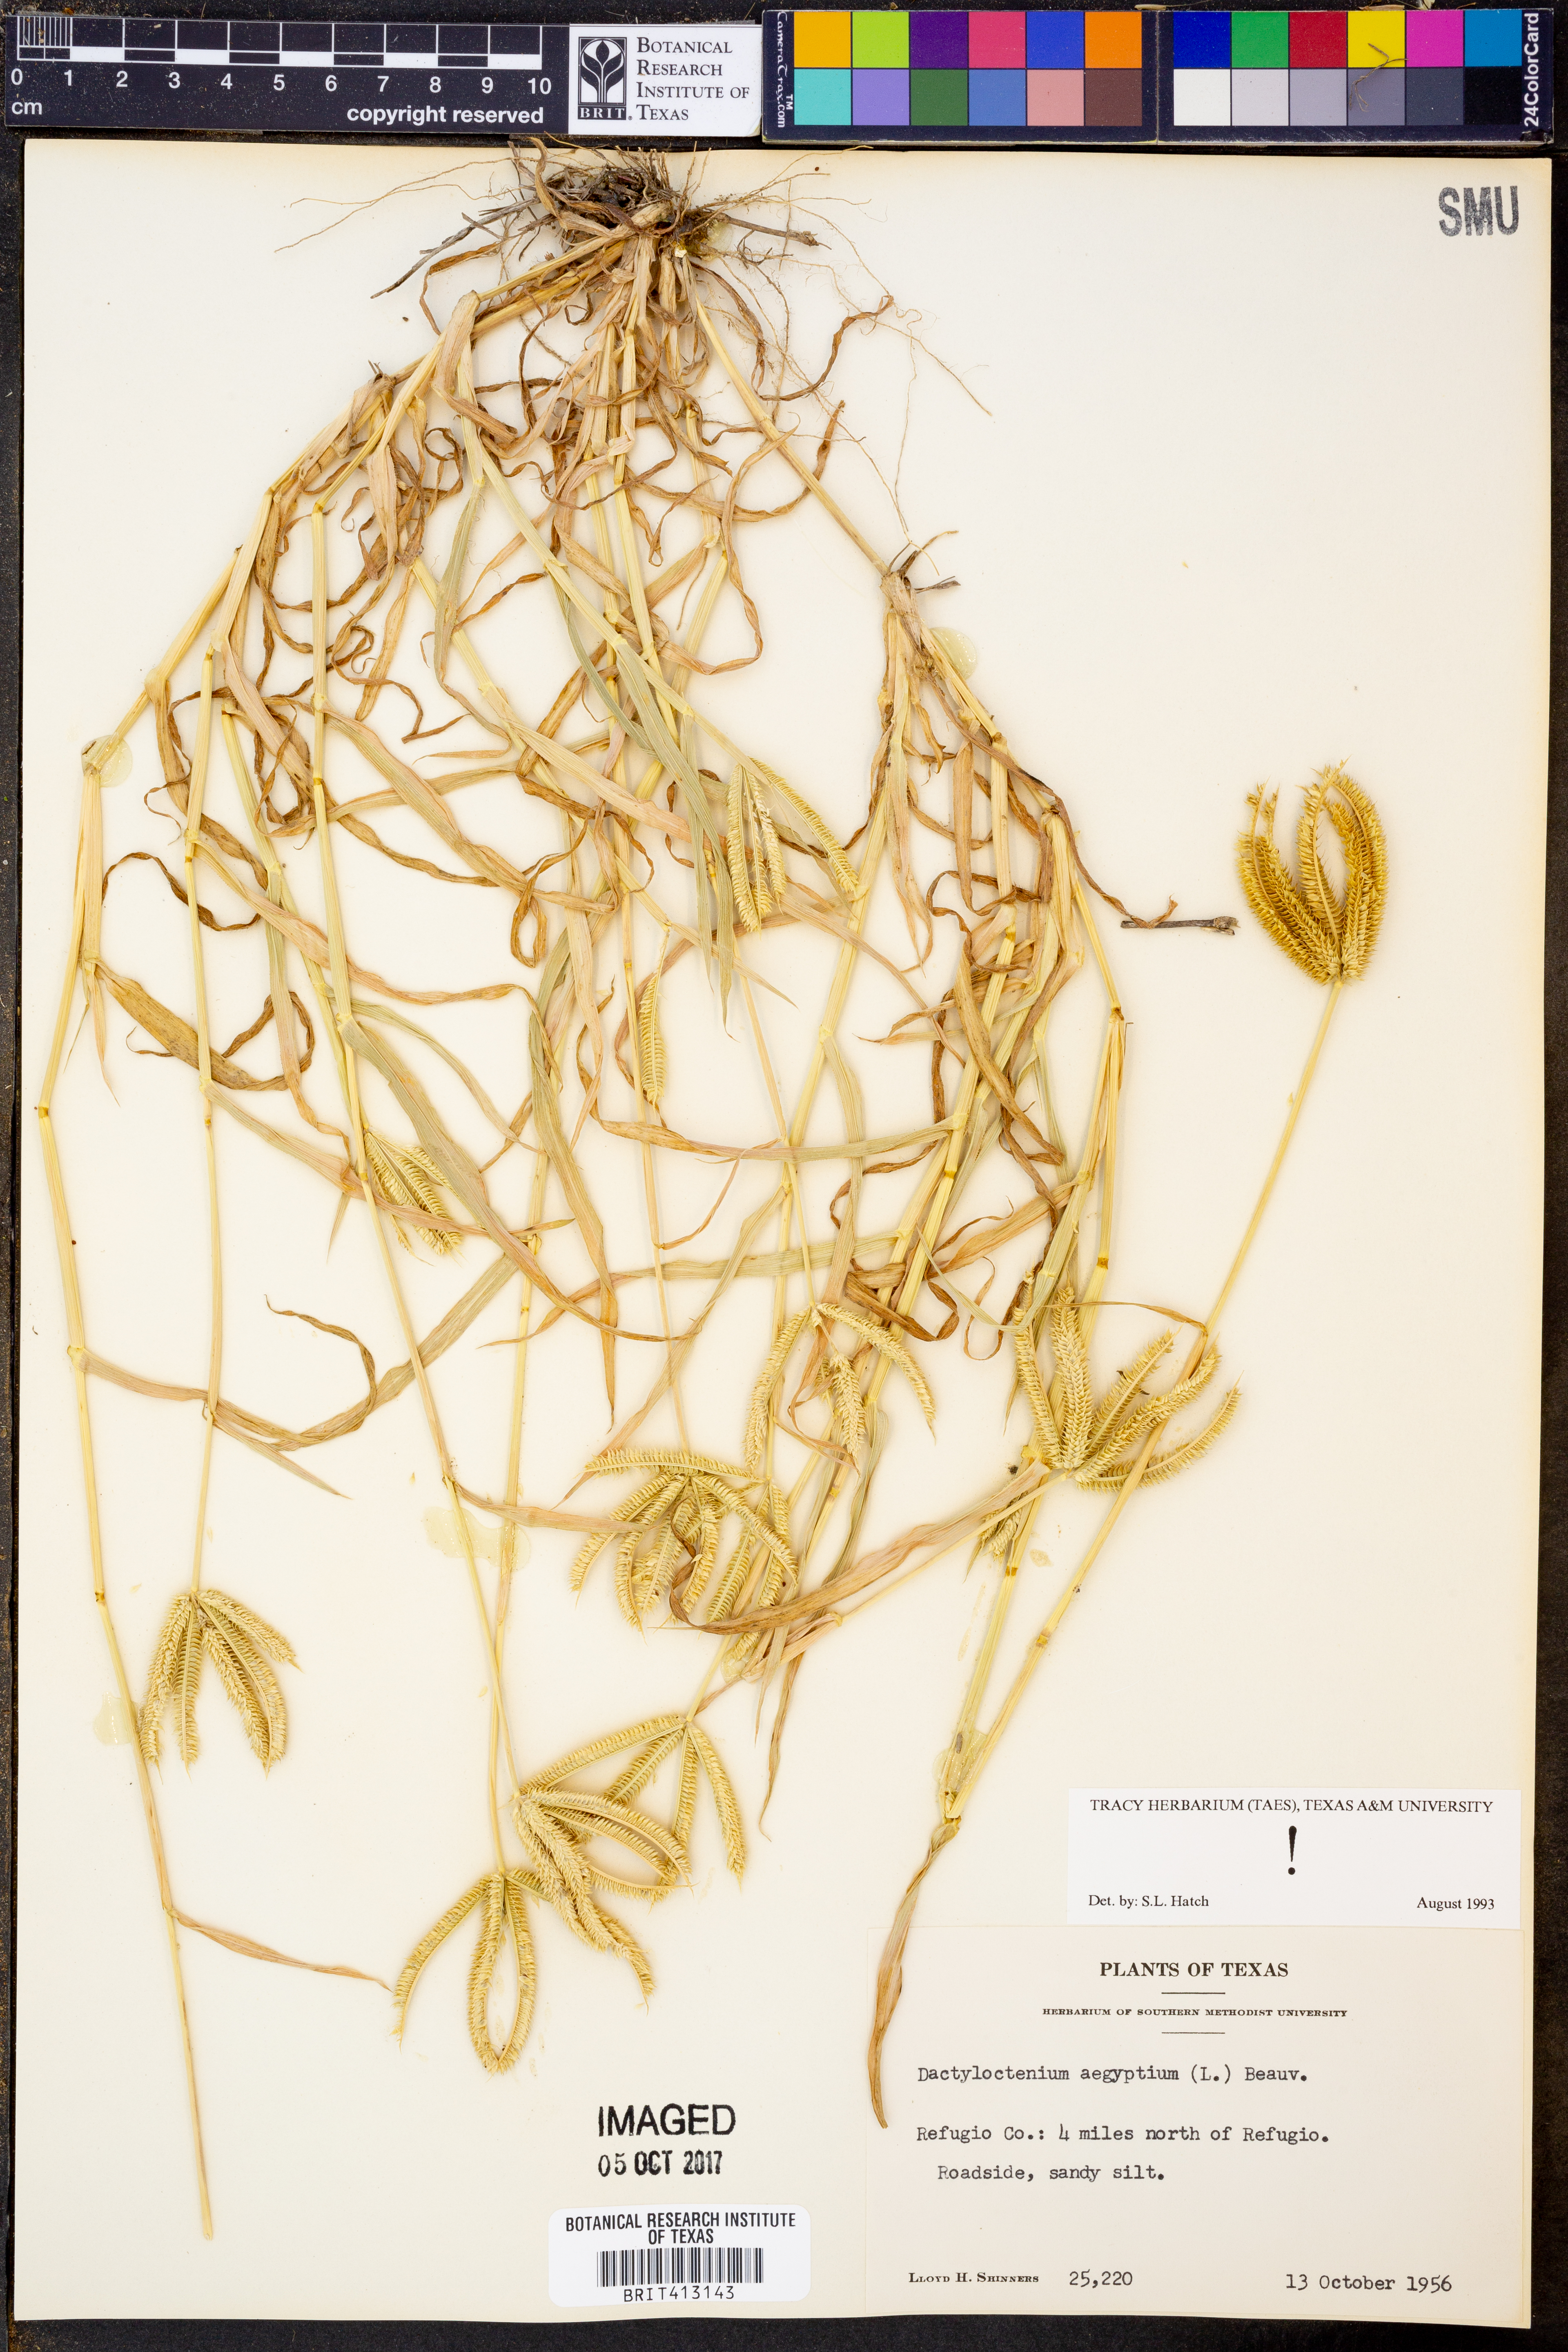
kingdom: Plantae
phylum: Tracheophyta
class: Liliopsida
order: Poales
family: Poaceae
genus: Dactyloctenium
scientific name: Dactyloctenium aegyptium
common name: Egyptian grass
